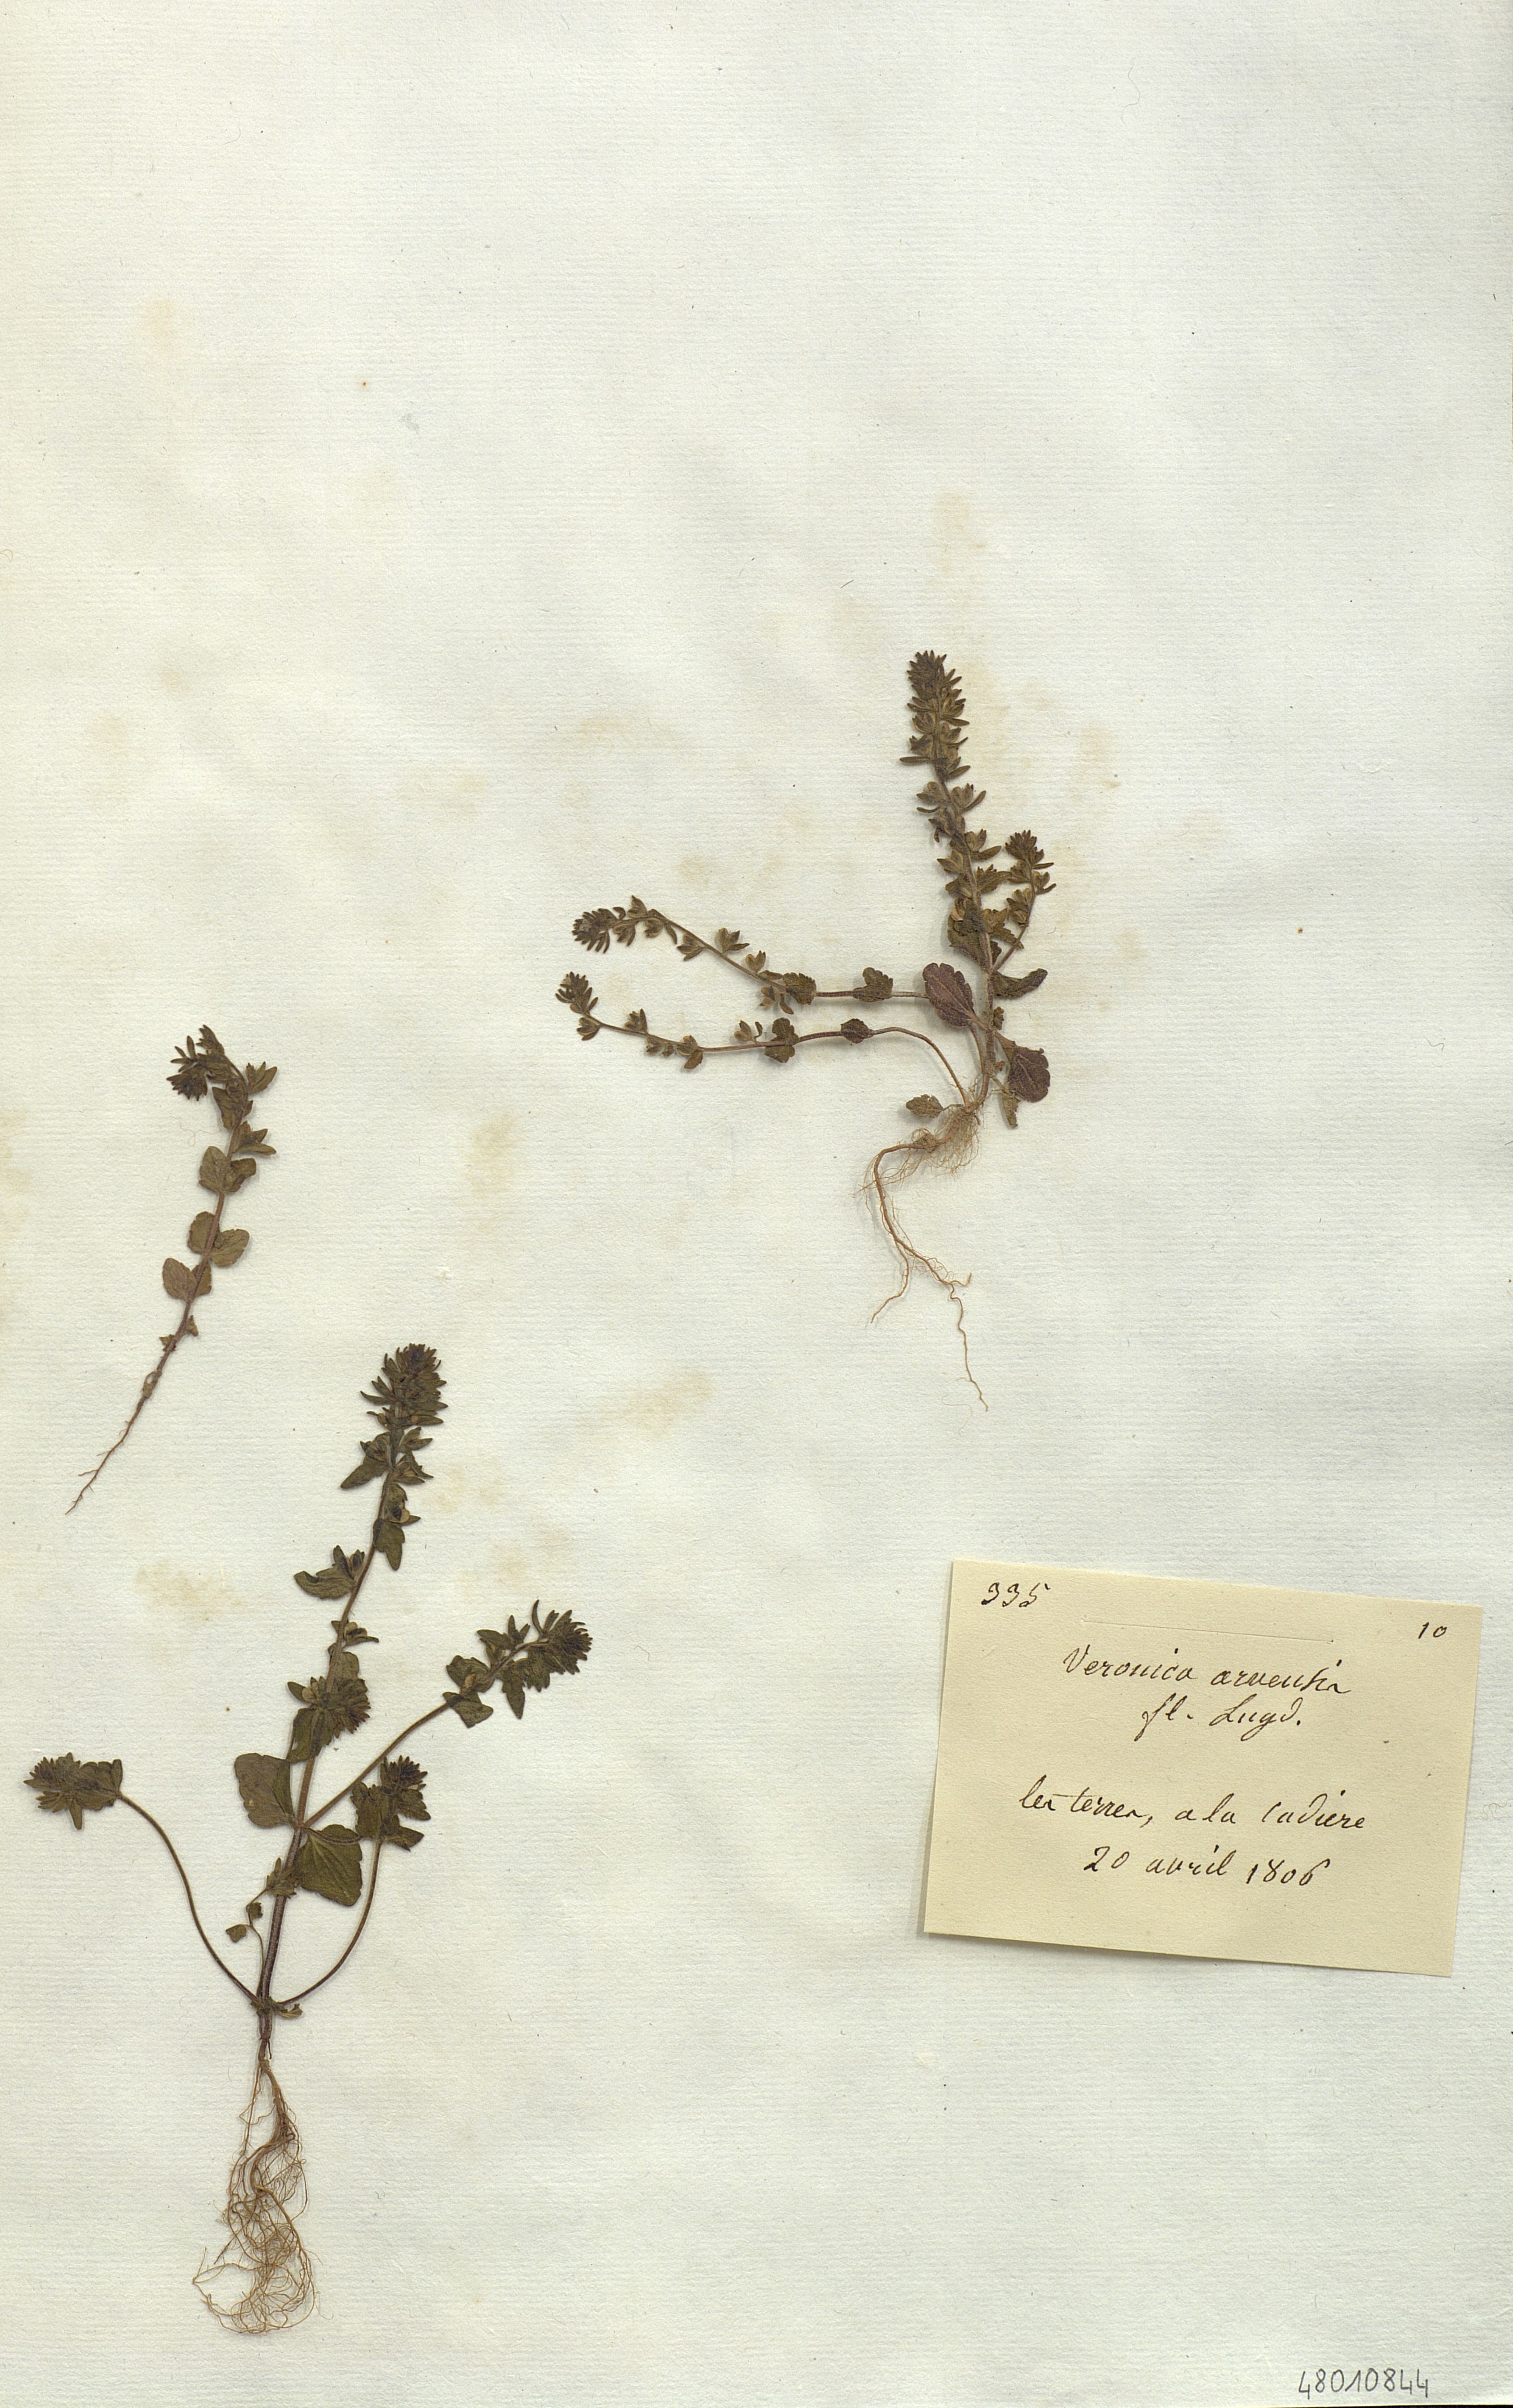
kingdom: Plantae
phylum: Tracheophyta
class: Magnoliopsida
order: Lamiales
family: Plantaginaceae
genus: Veronica
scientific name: Veronica arvensis
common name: Corn speedwell
